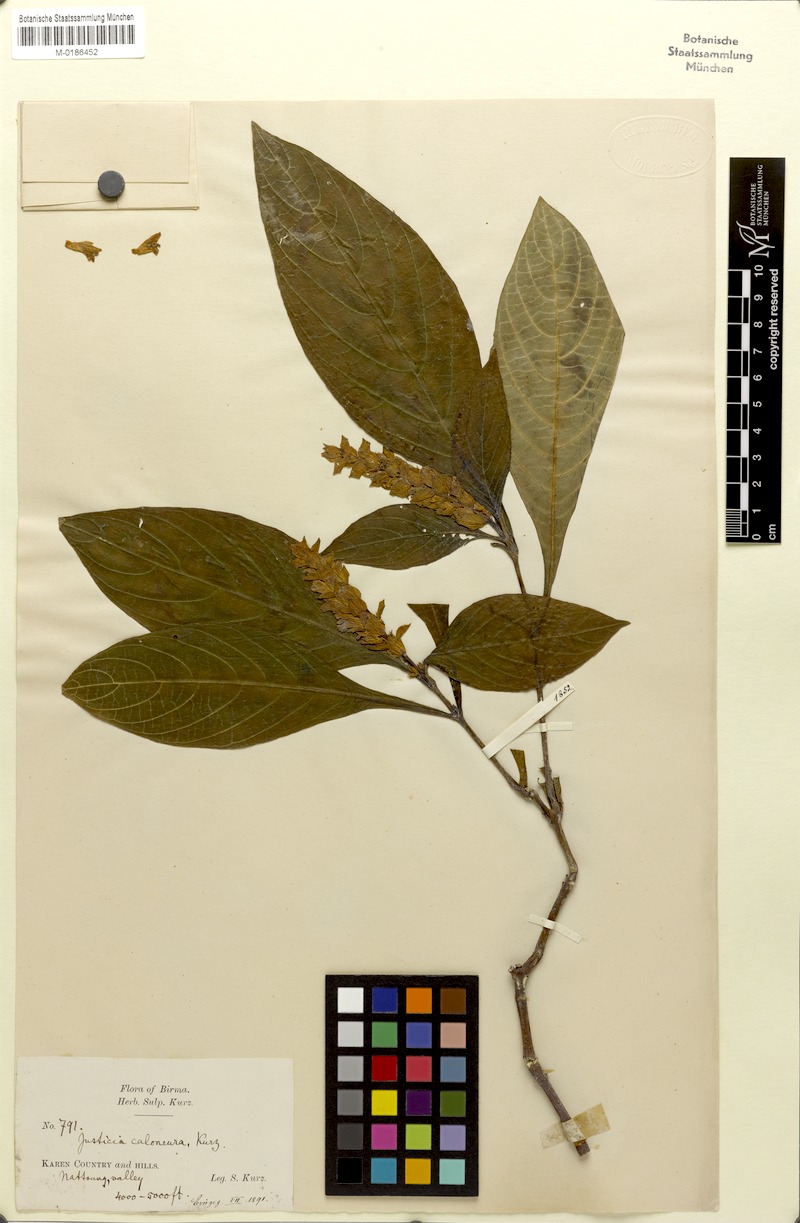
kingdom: Plantae
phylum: Tracheophyta
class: Magnoliopsida
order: Lamiales
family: Acanthaceae
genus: Justicia
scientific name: Justicia caloneura
